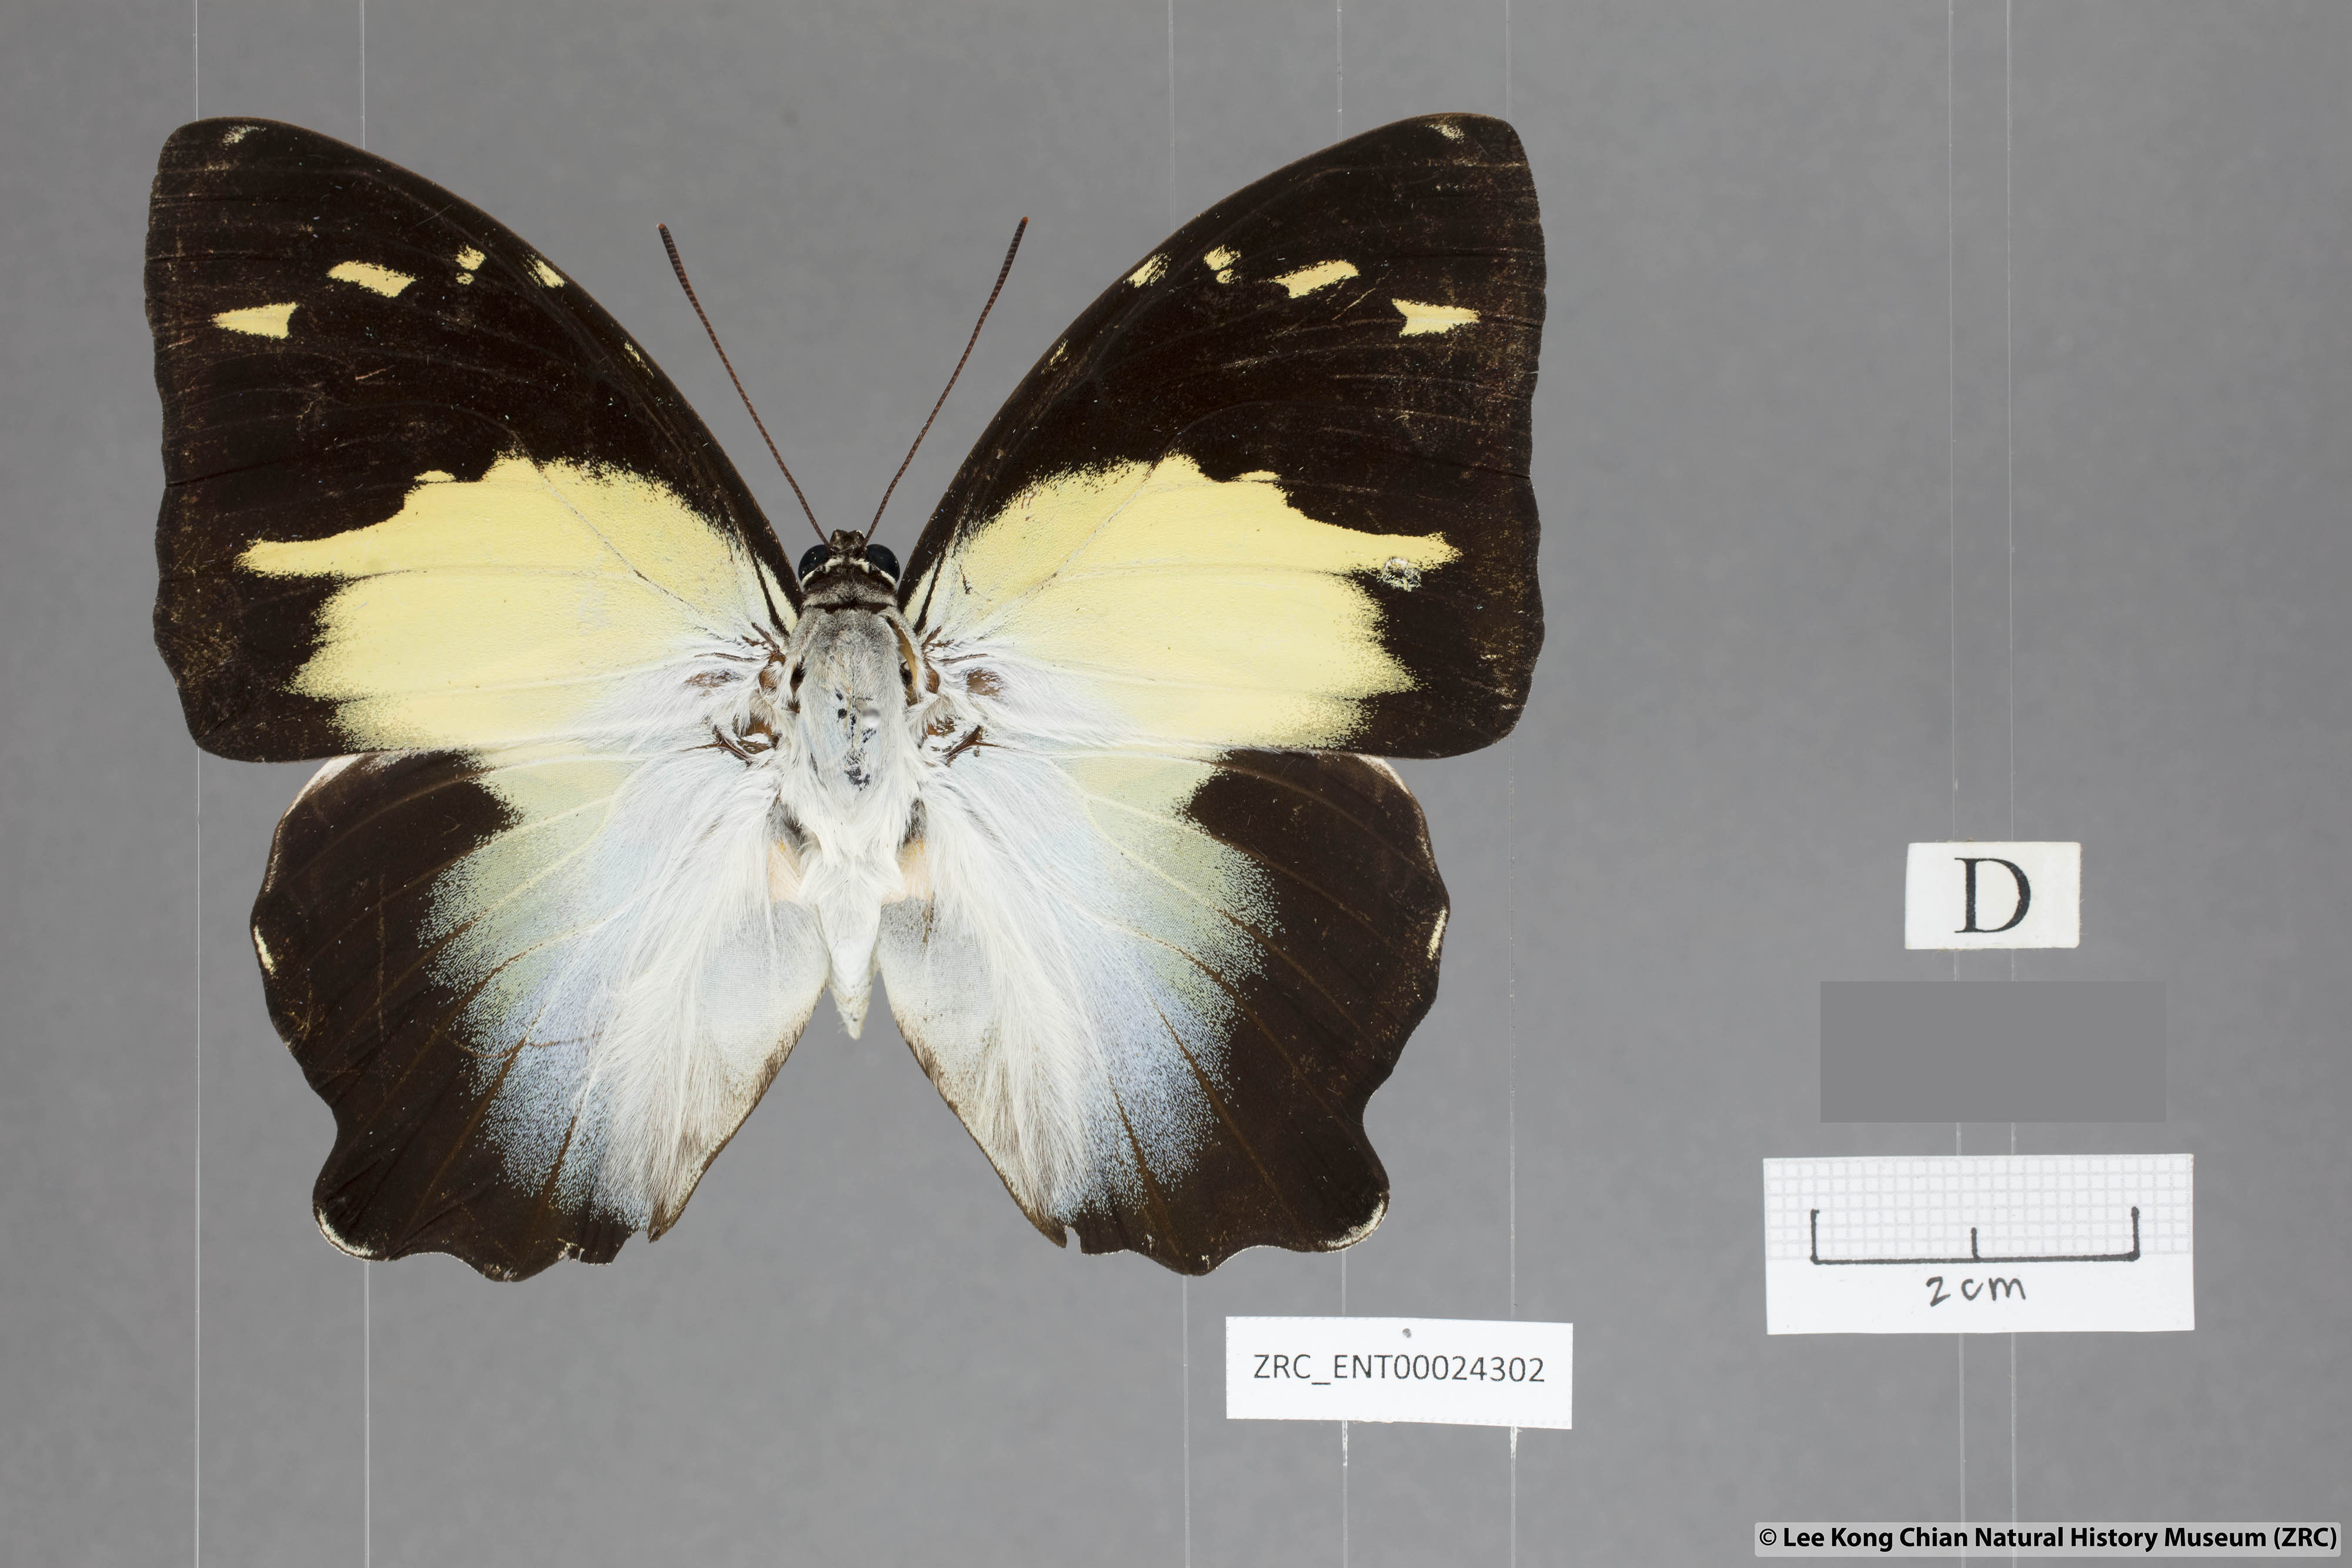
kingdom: Animalia
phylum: Arthropoda
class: Insecta
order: Lepidoptera
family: Nymphalidae
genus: Prothoe
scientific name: Prothoe Agatasa calydonia
